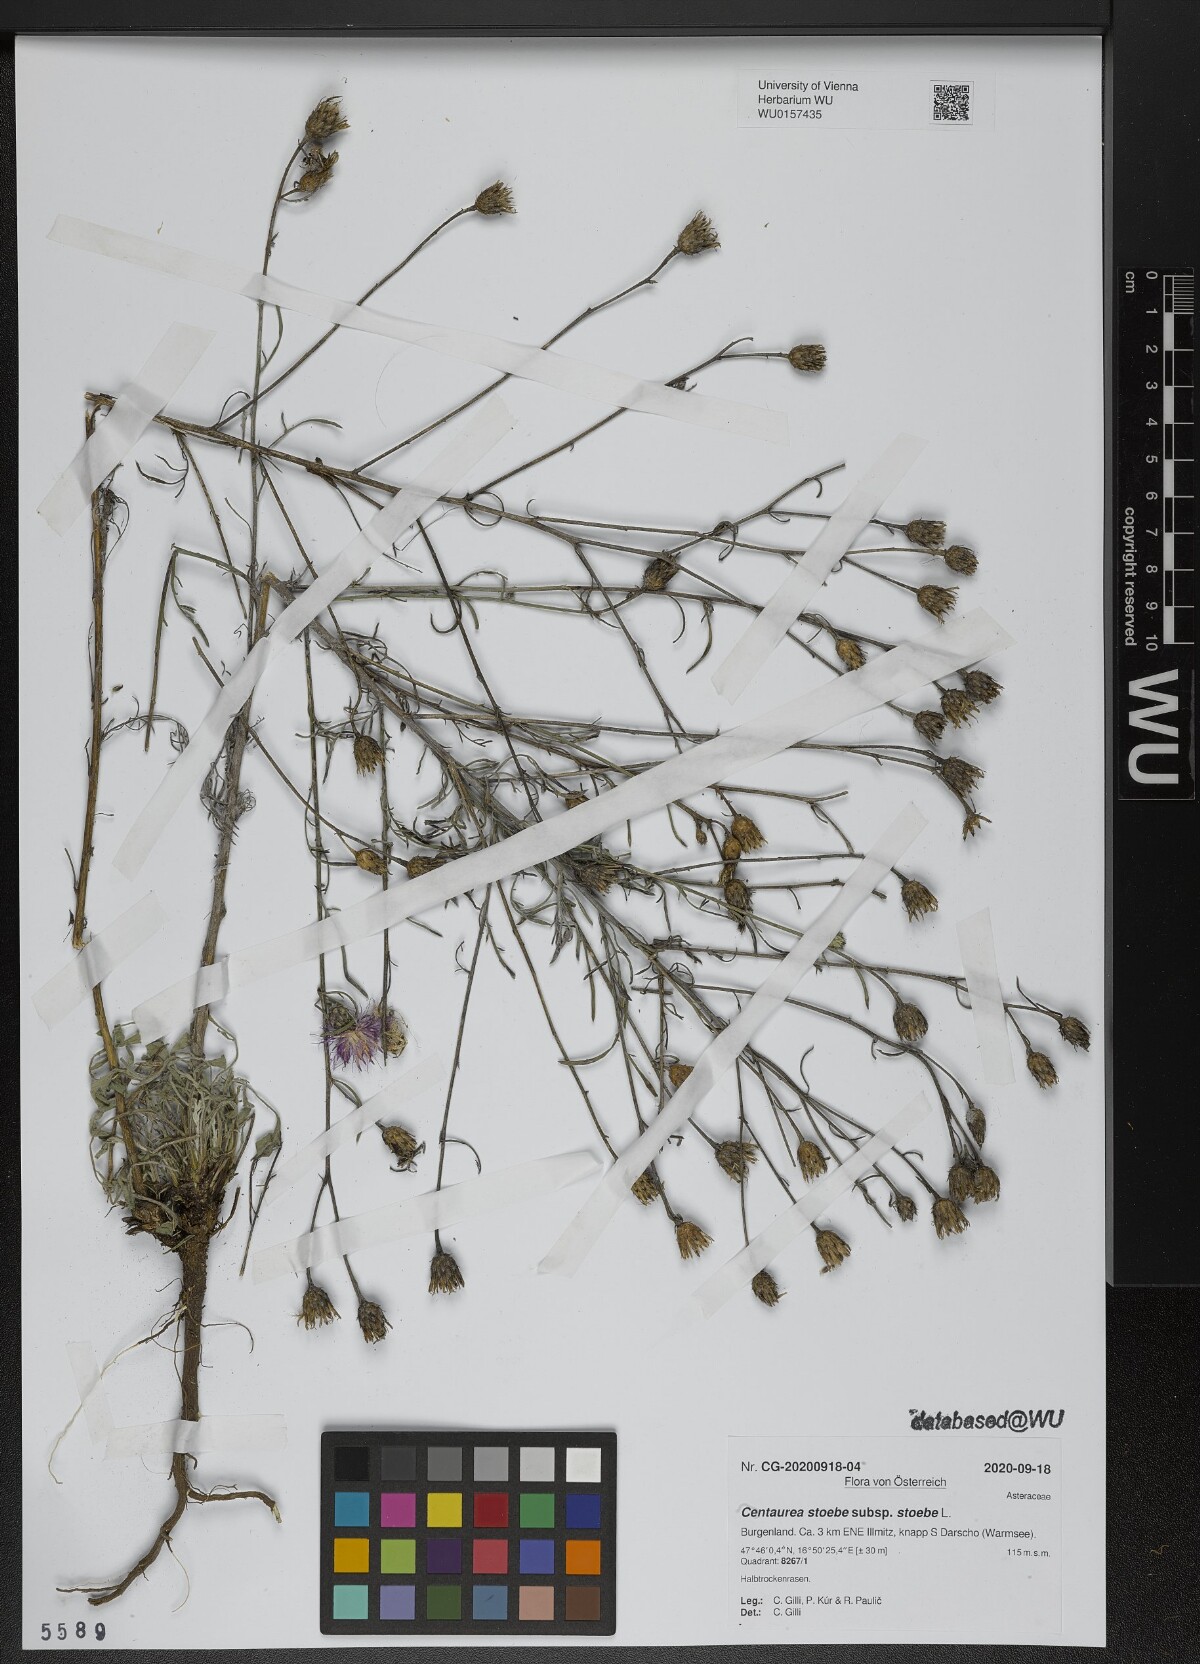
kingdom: Plantae
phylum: Tracheophyta
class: Magnoliopsida
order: Asterales
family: Asteraceae
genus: Centaurea
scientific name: Centaurea stoebe
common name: Spotted knapweed
